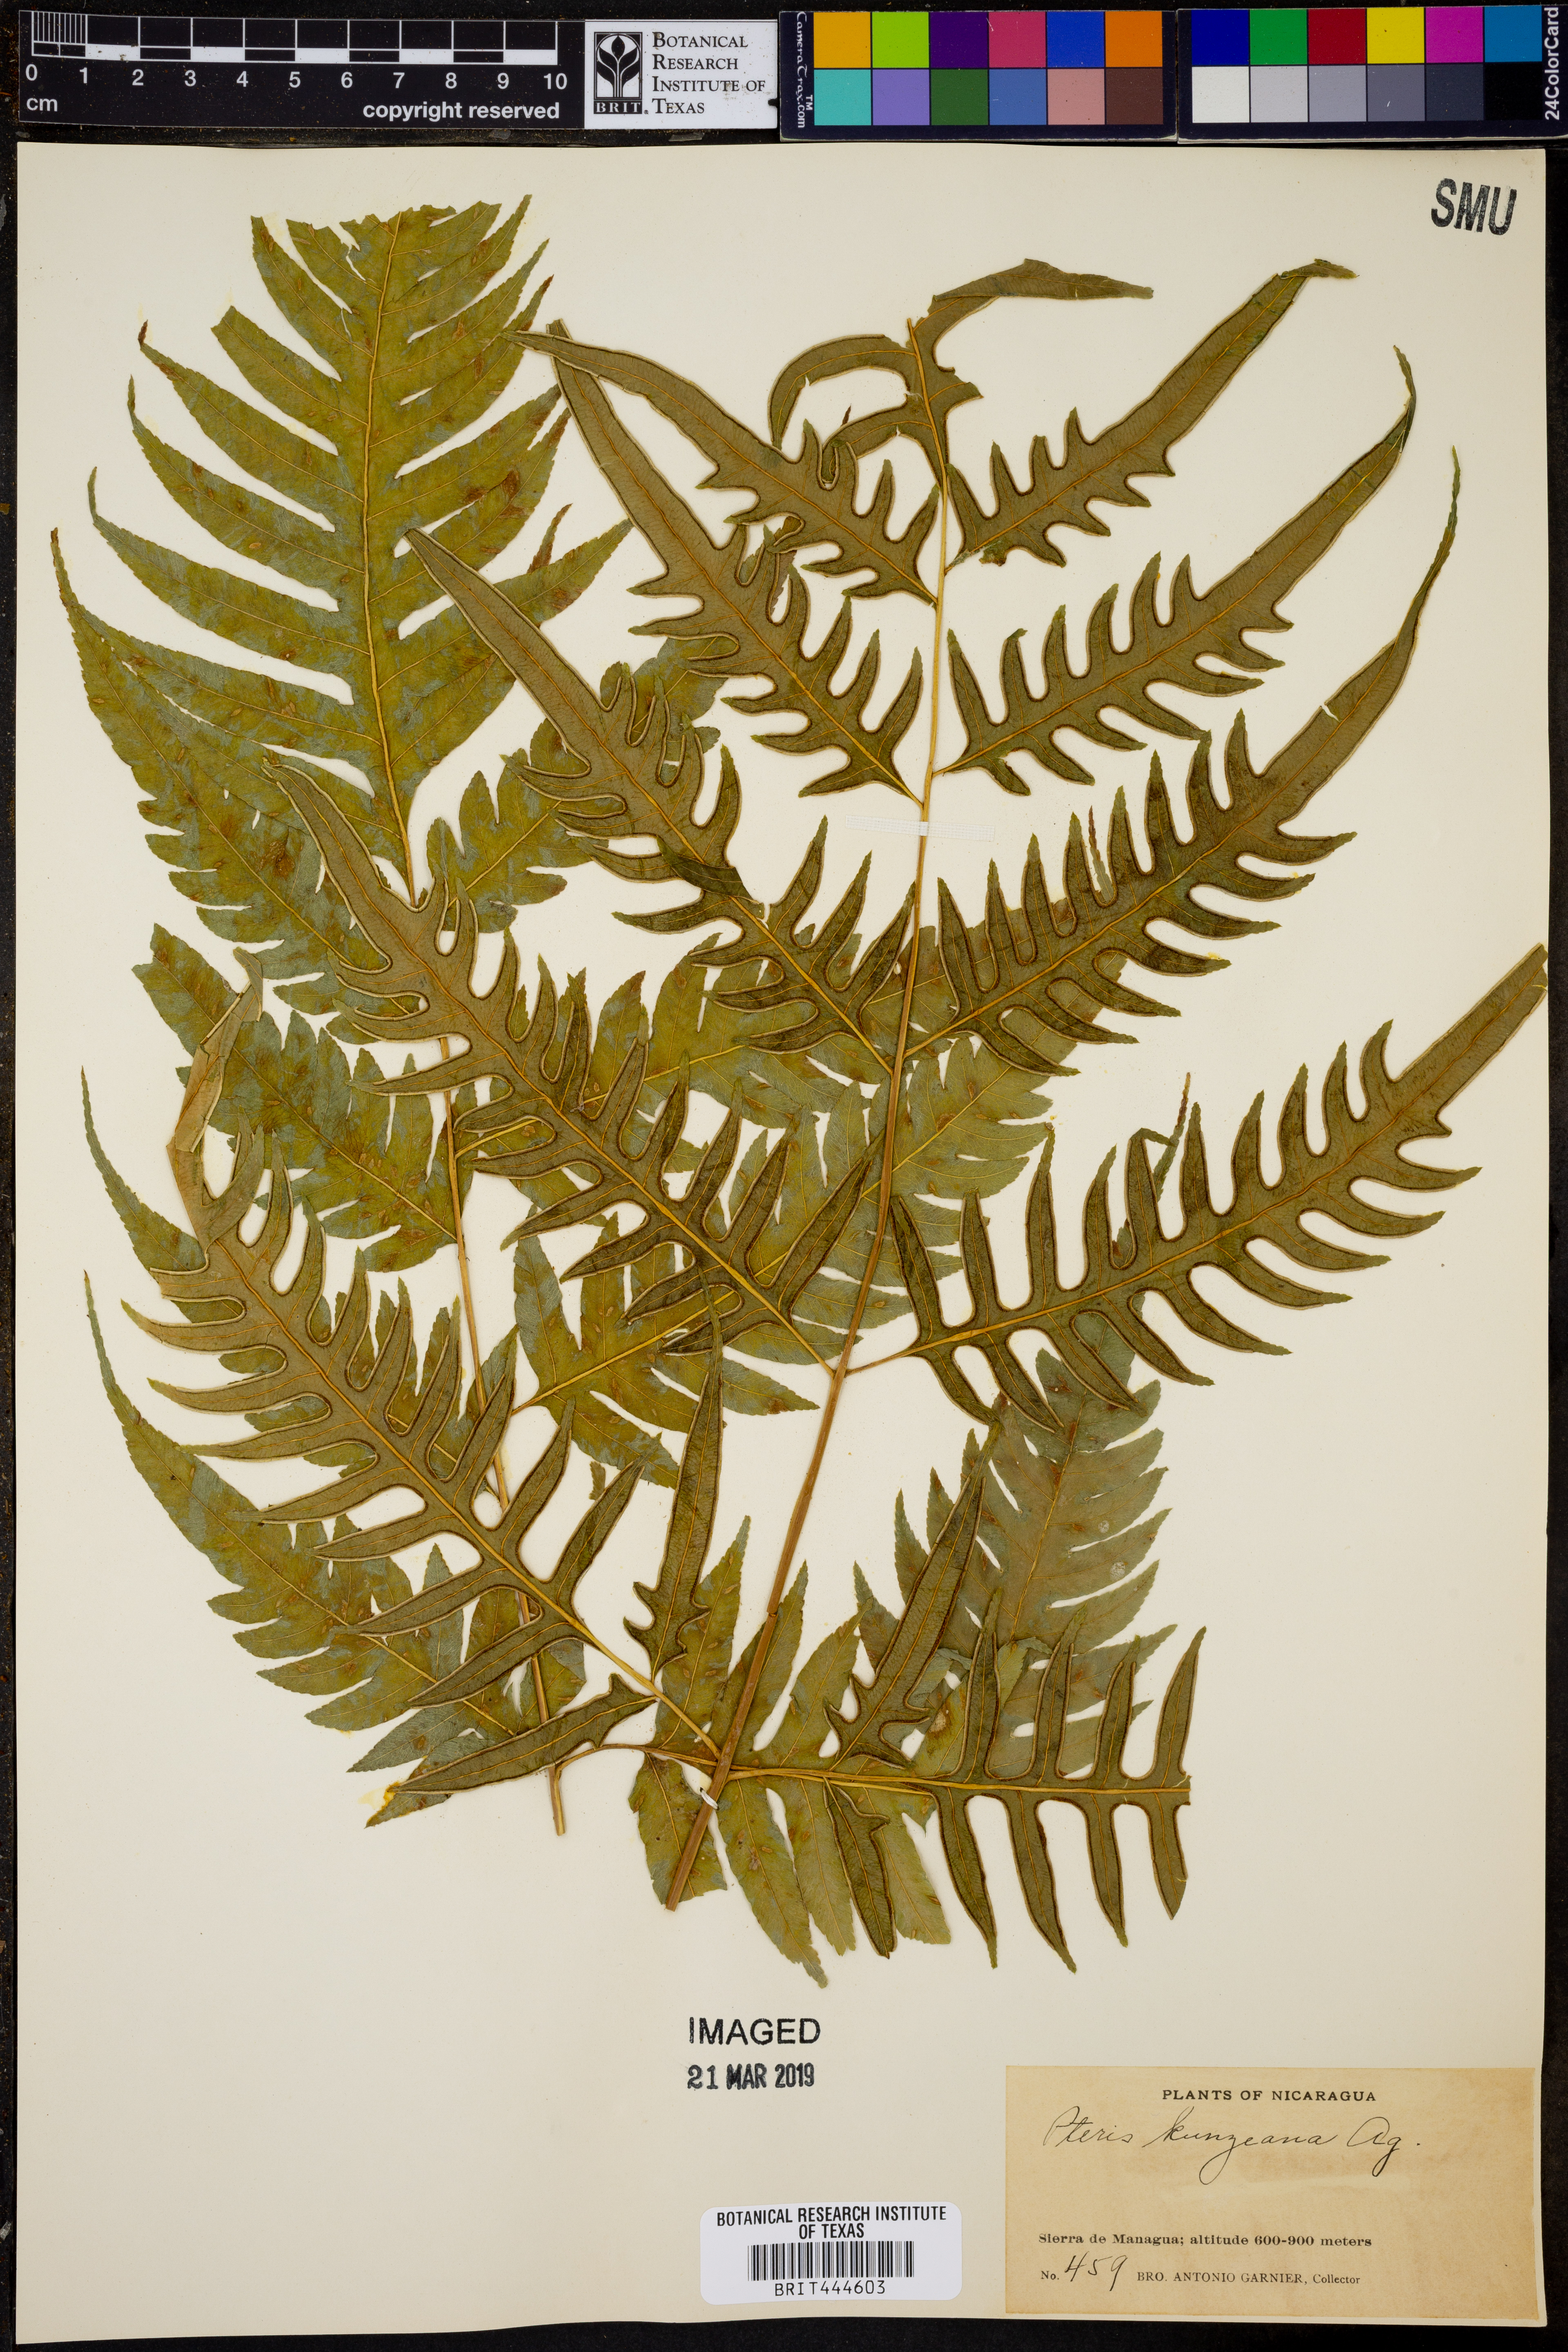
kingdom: Plantae
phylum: Tracheophyta
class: Polypodiopsida
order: Polypodiales
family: Pteridaceae
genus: Pteris
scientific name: Pteris altissima
